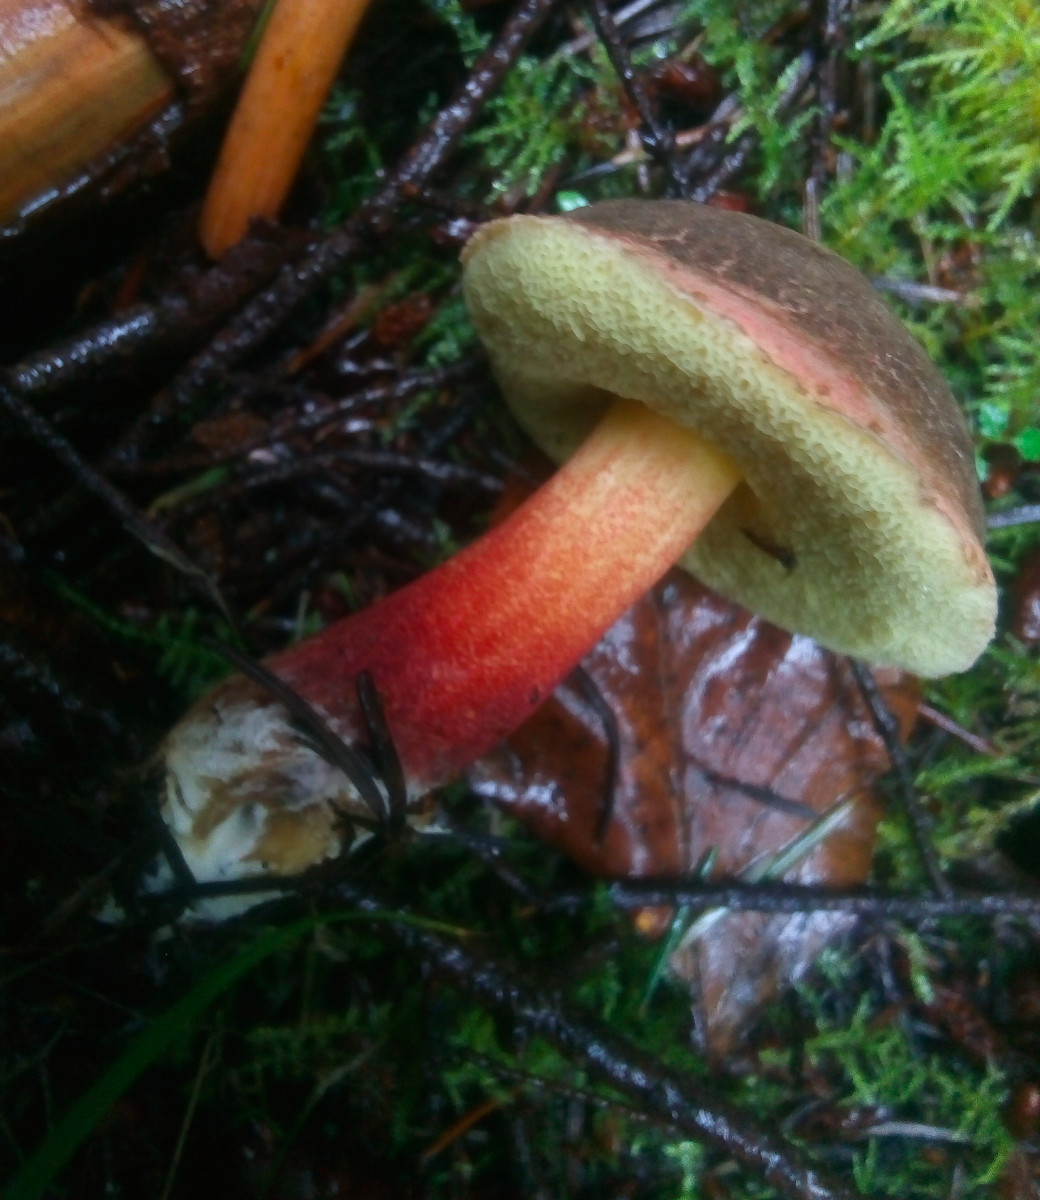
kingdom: Fungi
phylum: Basidiomycota
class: Agaricomycetes
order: Boletales
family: Boletaceae
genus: Xerocomellus
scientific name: Xerocomellus pruinatus
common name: dugget rørhat
